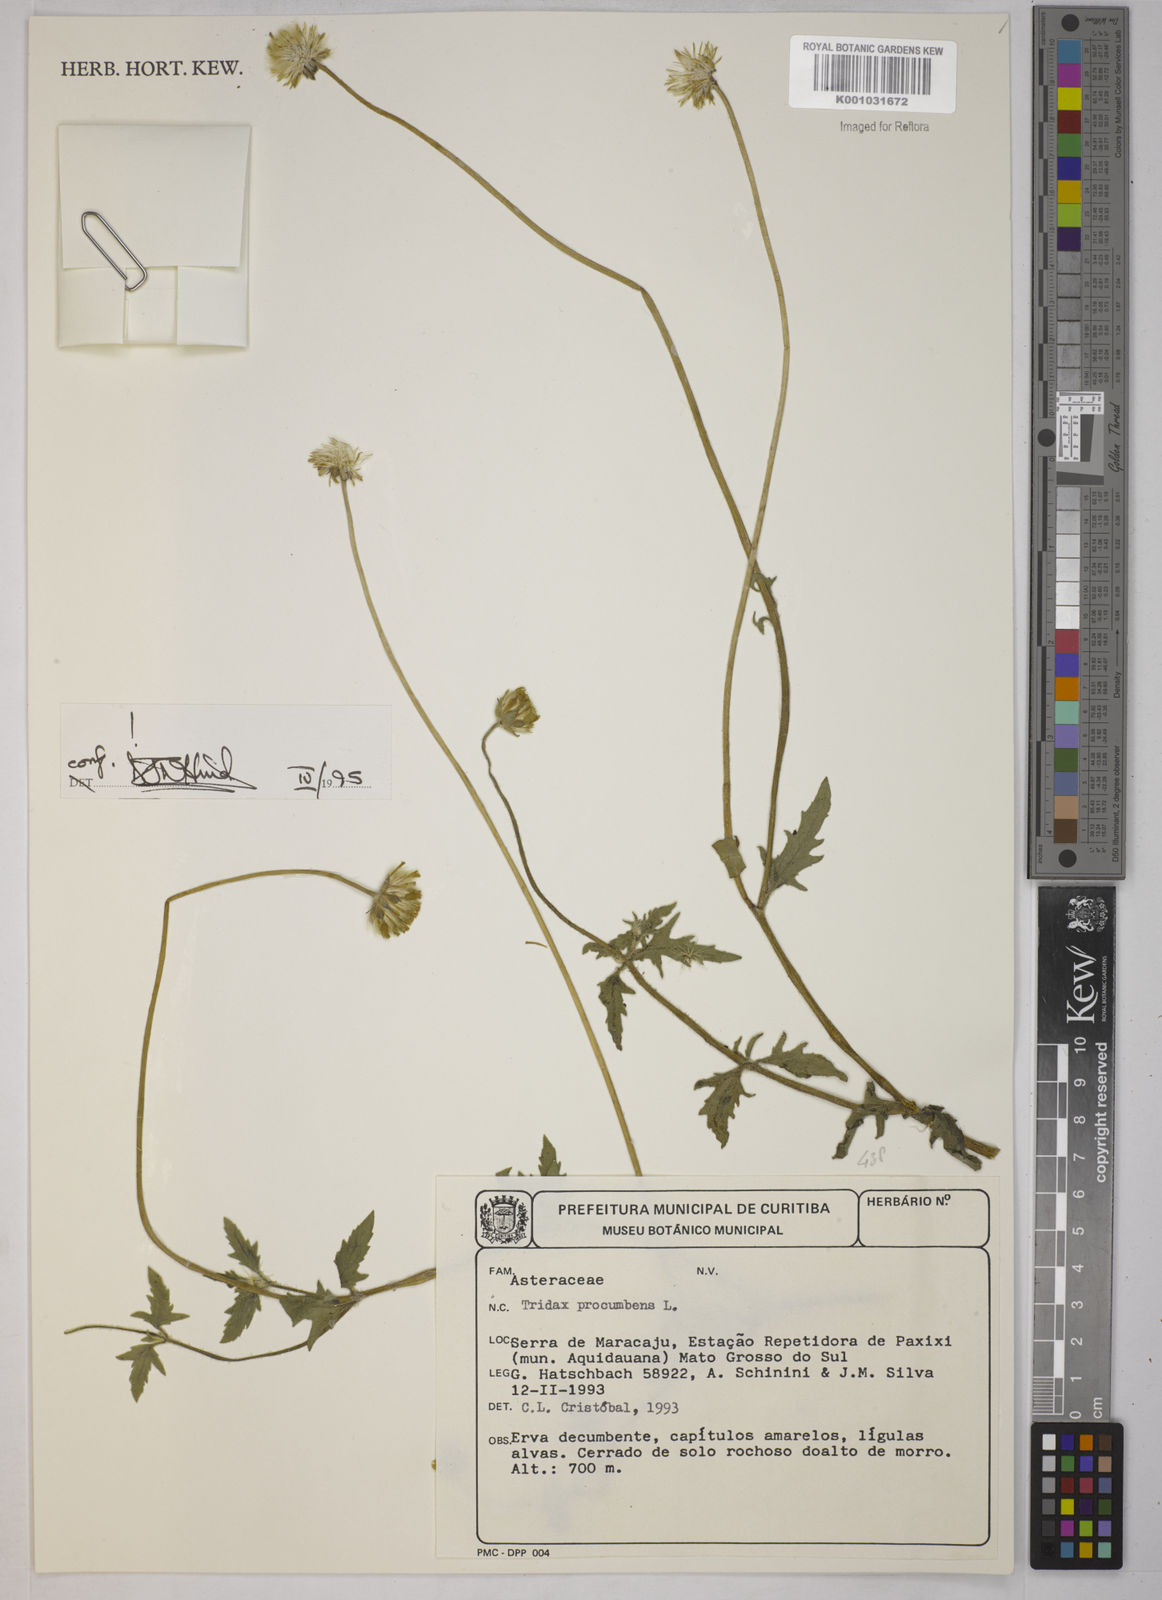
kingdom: Plantae
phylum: Tracheophyta
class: Magnoliopsida
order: Asterales
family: Asteraceae
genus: Tridax
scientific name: Tridax procumbens
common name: Coatbuttons
